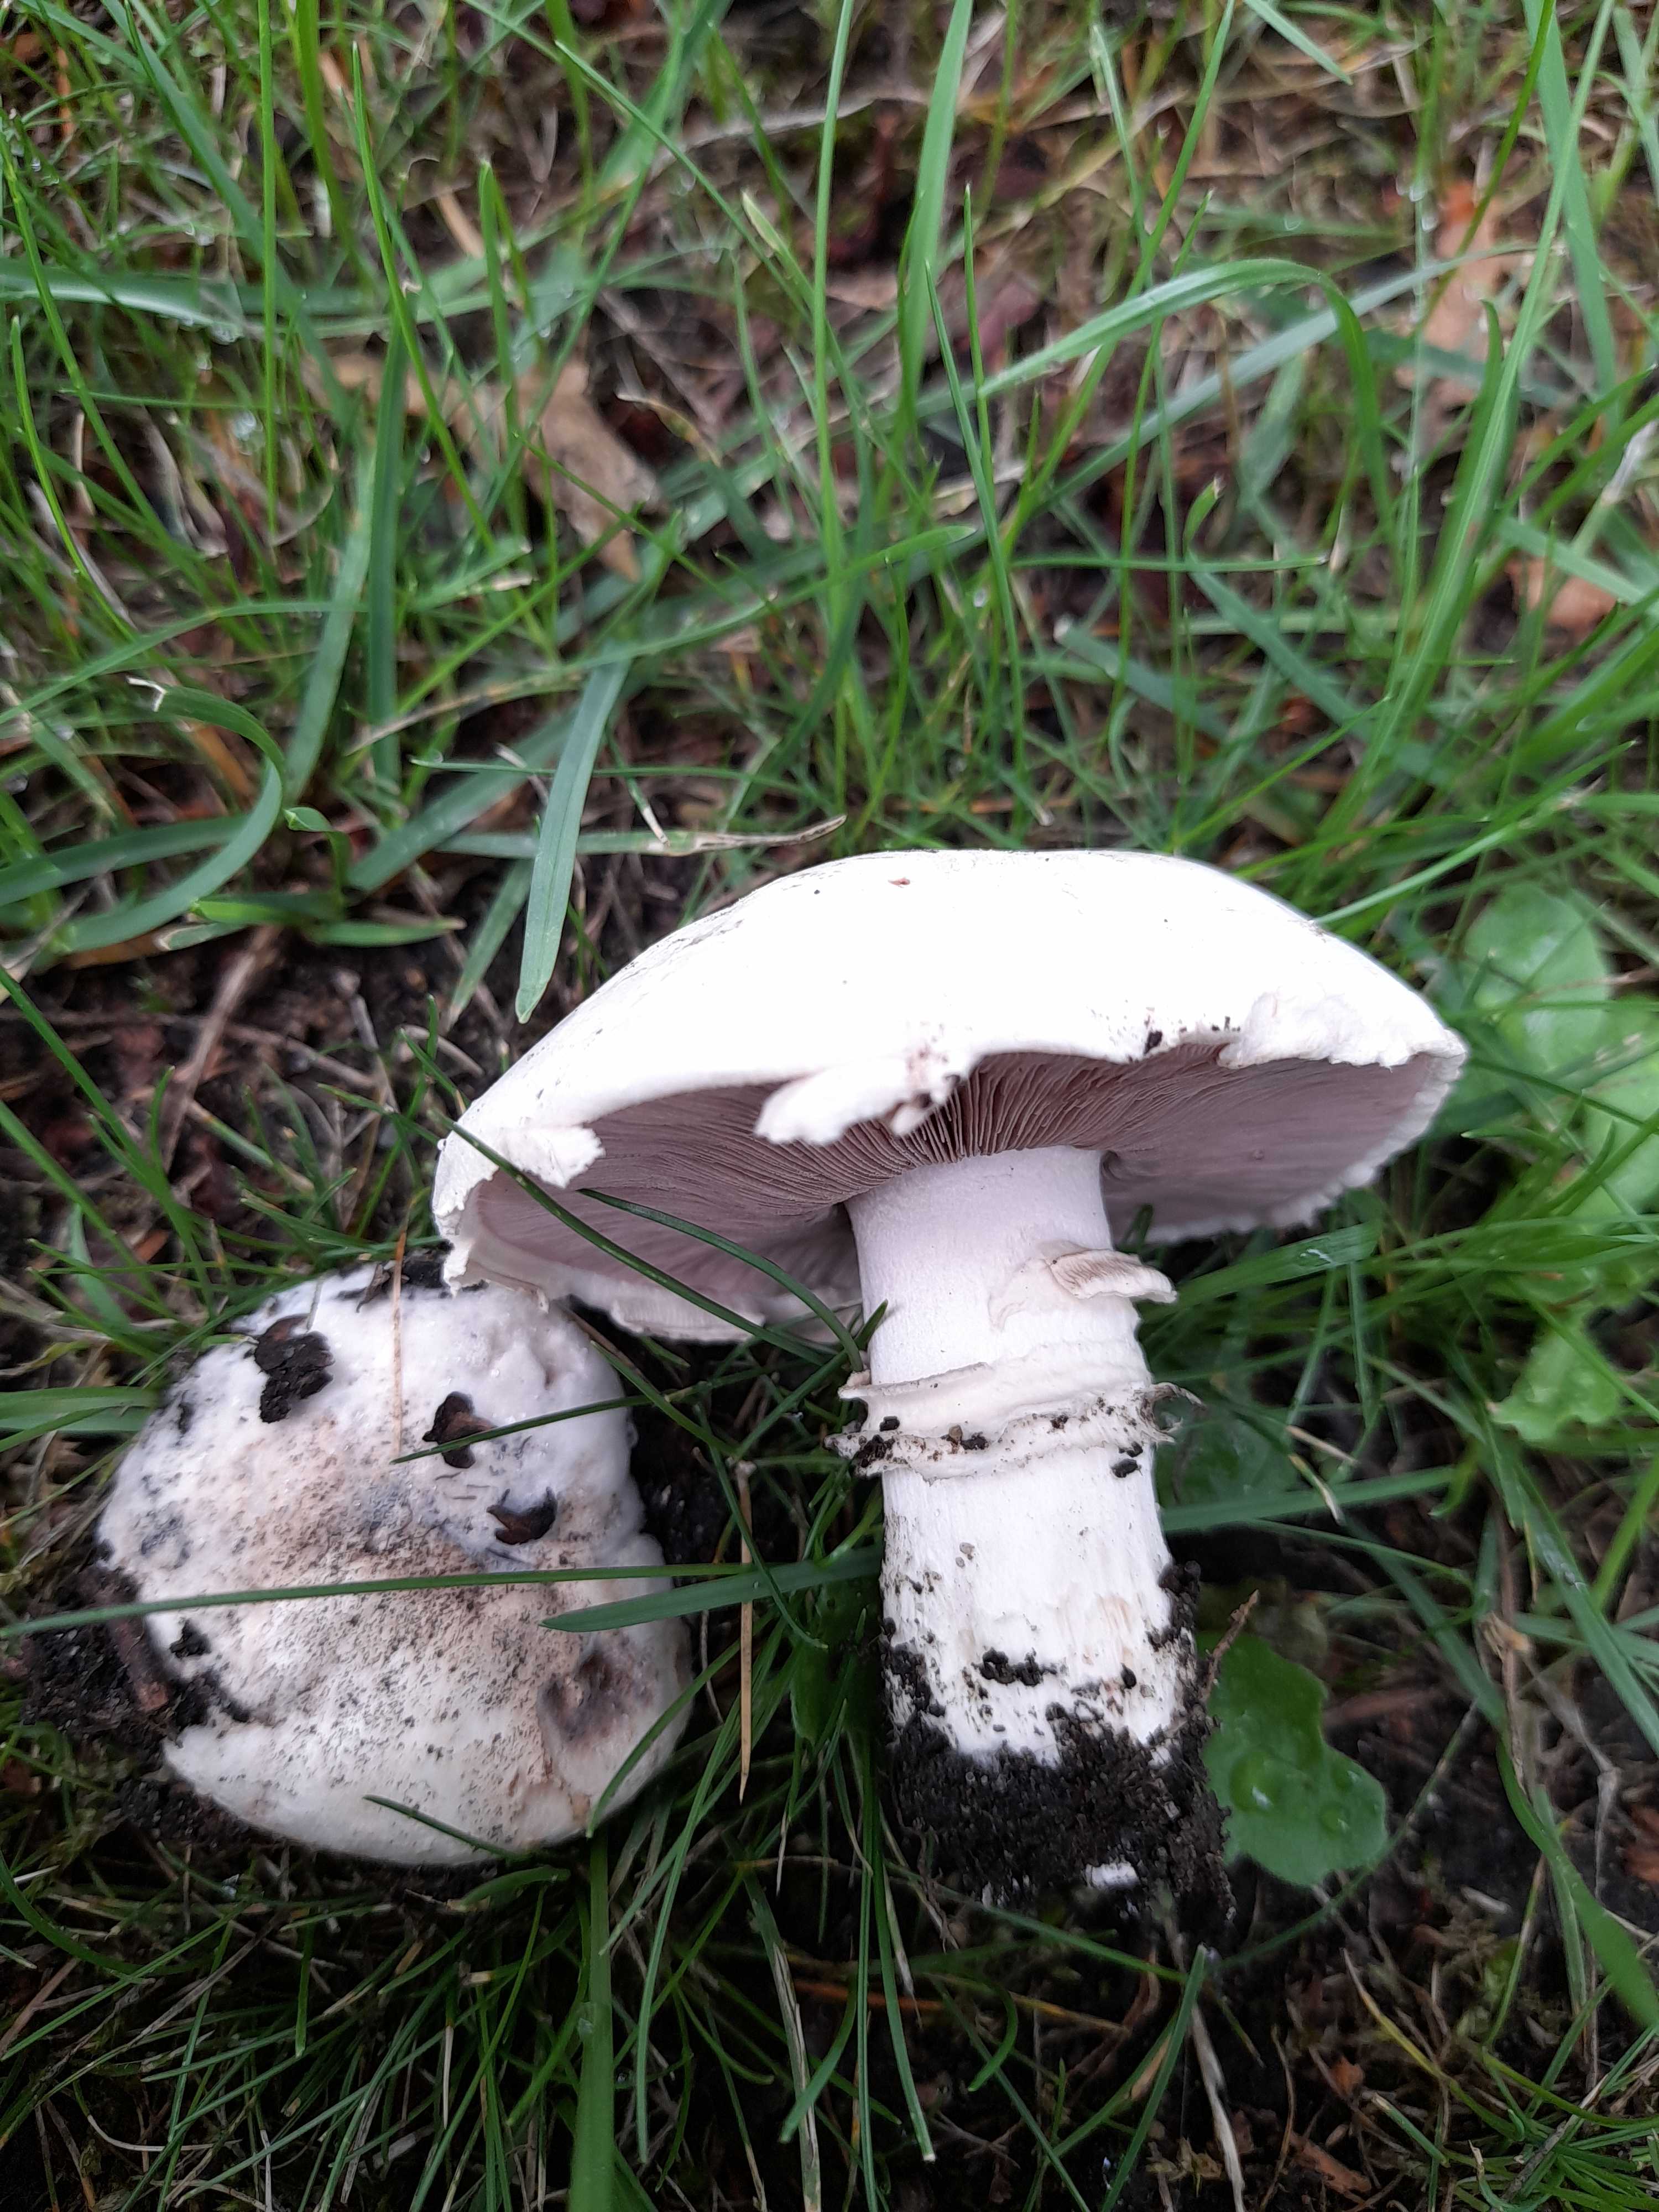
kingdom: Fungi
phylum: Basidiomycota
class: Agaricomycetes
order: Agaricales
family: Agaricaceae
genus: Agaricus
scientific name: Agaricus bitorquis
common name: vej-champignon
